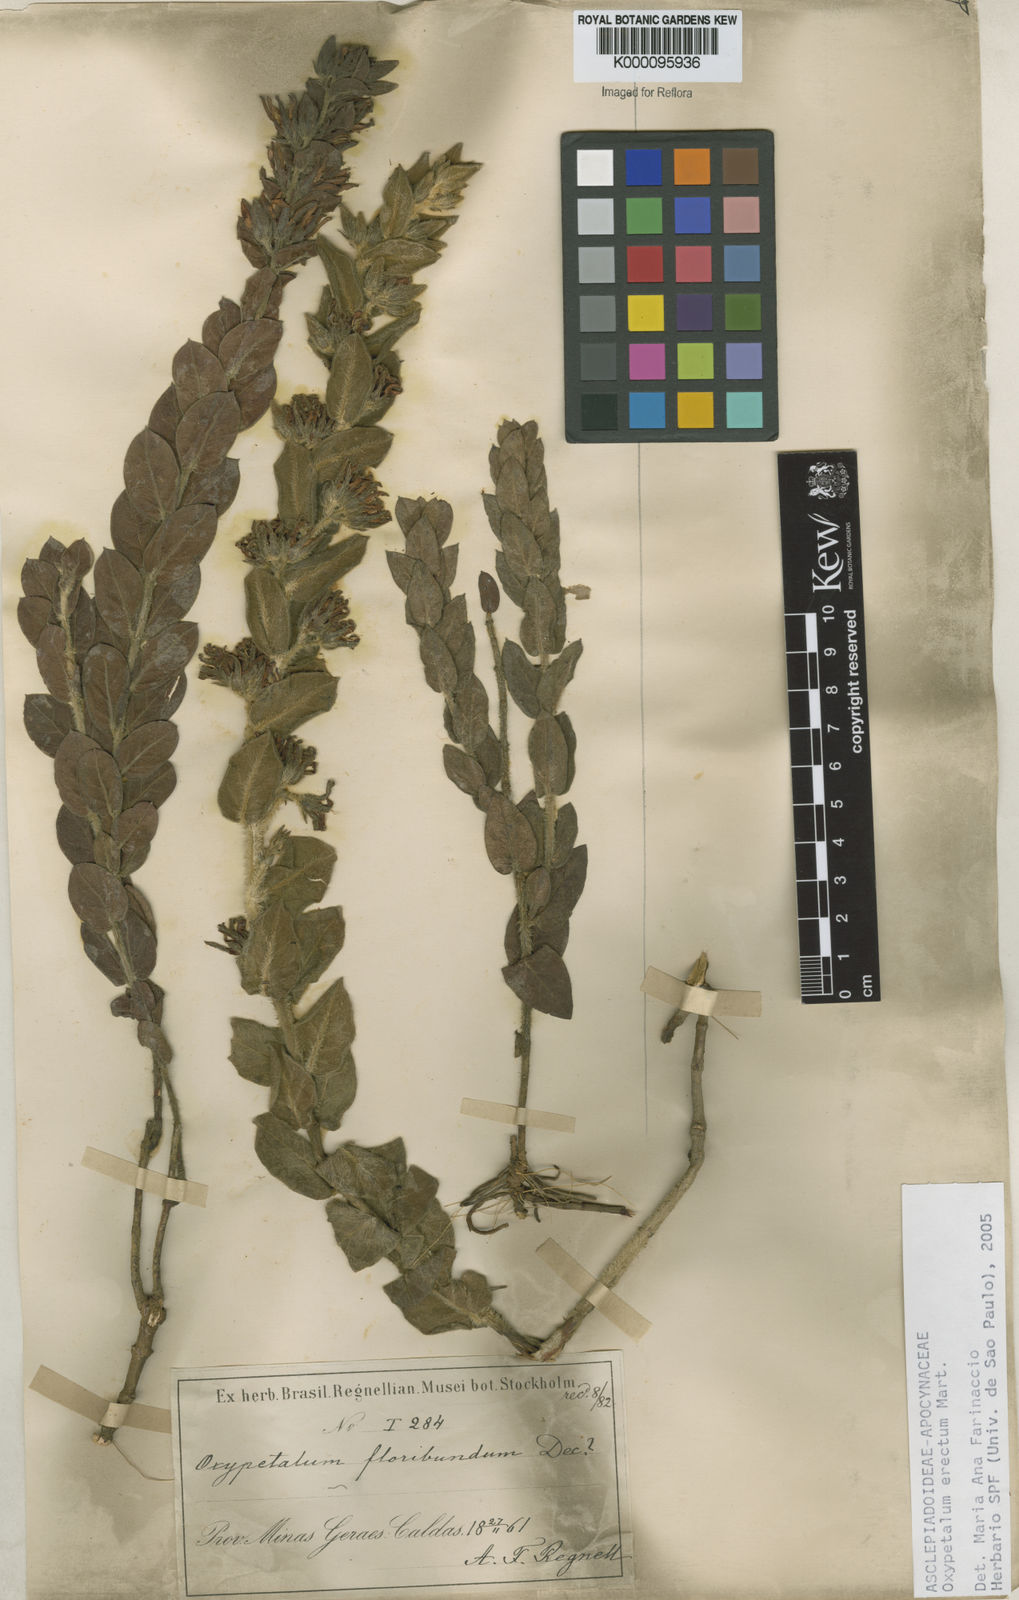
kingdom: Plantae
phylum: Tracheophyta
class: Magnoliopsida
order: Gentianales
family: Apocynaceae
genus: Oxypetalum
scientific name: Oxypetalum erectum
